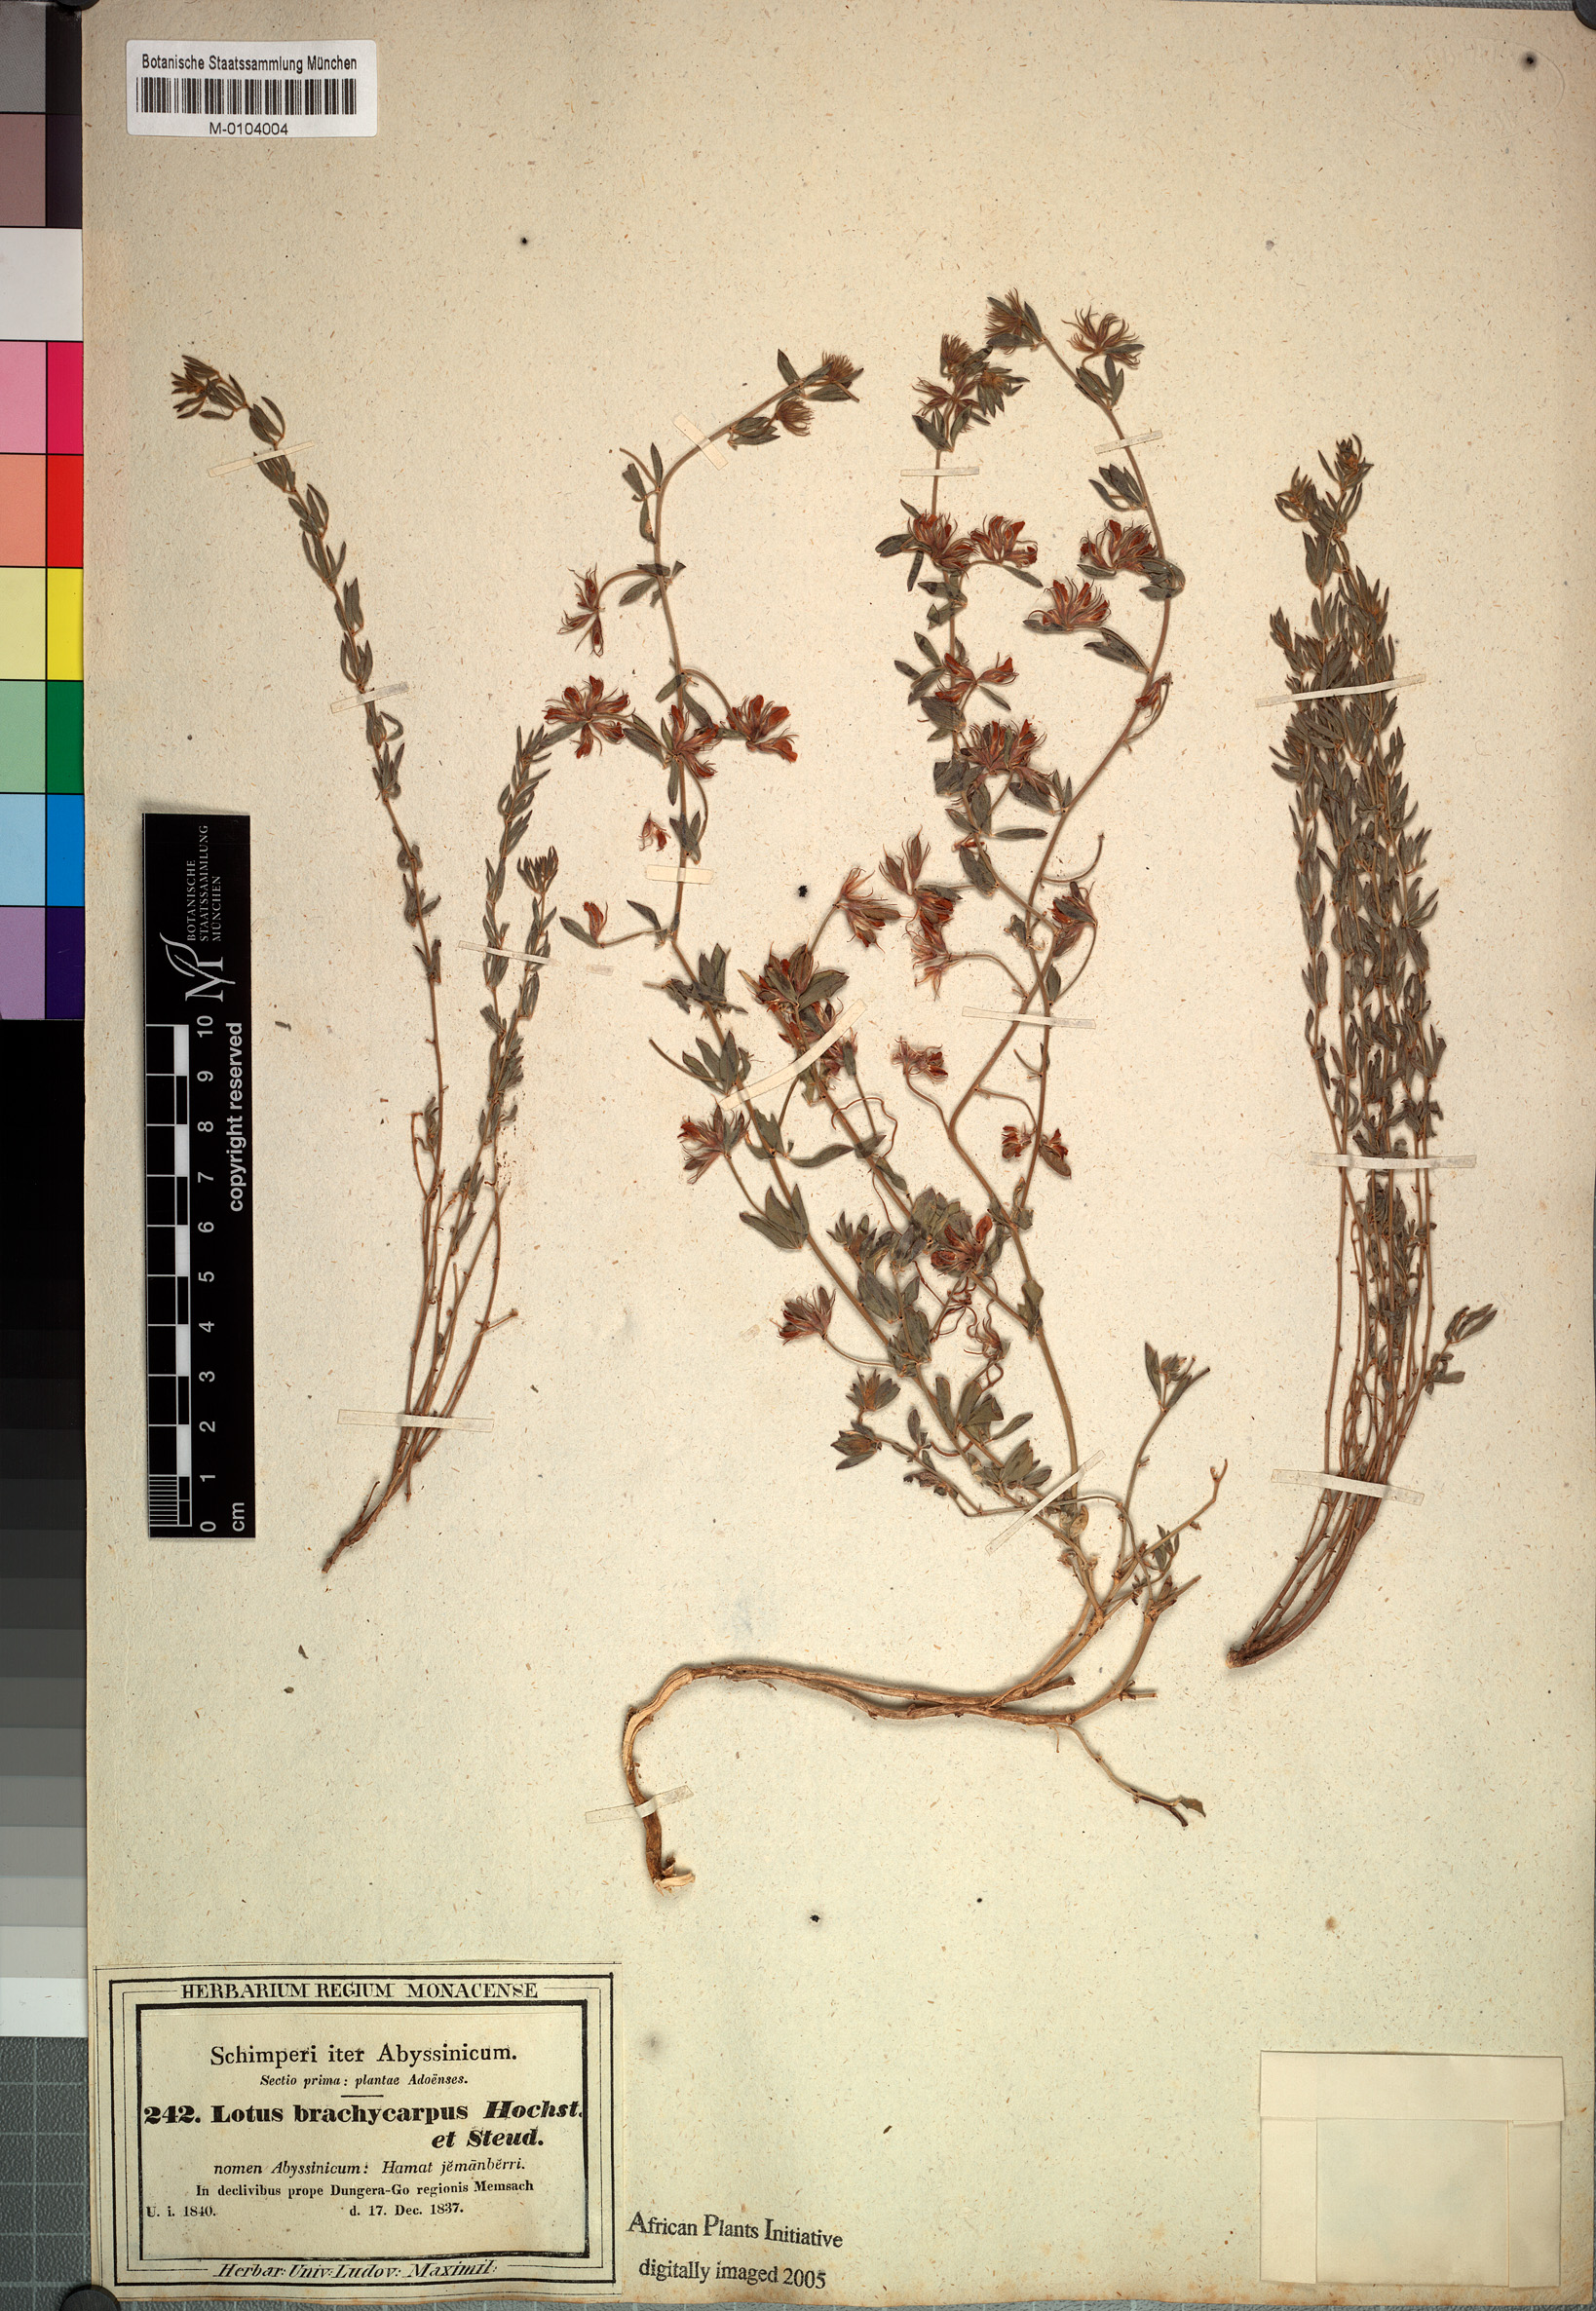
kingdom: Plantae
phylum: Tracheophyta
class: Magnoliopsida
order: Fabales
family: Fabaceae
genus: Lotus
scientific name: Lotus quinatus
